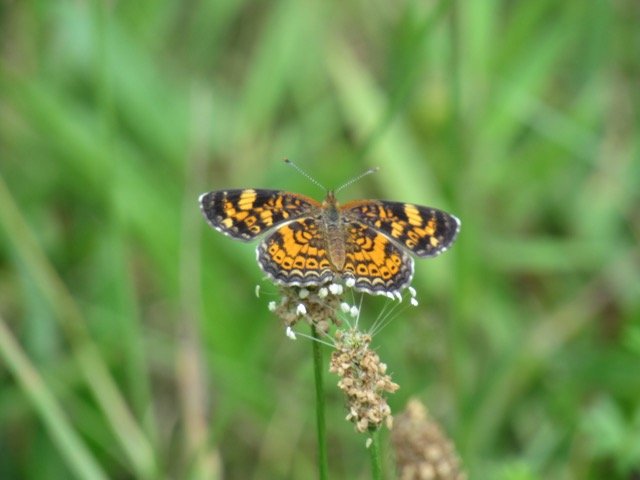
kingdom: Animalia
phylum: Arthropoda
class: Insecta
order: Lepidoptera
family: Nymphalidae
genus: Phyciodes
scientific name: Phyciodes tharos
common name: Pearl Crescent
